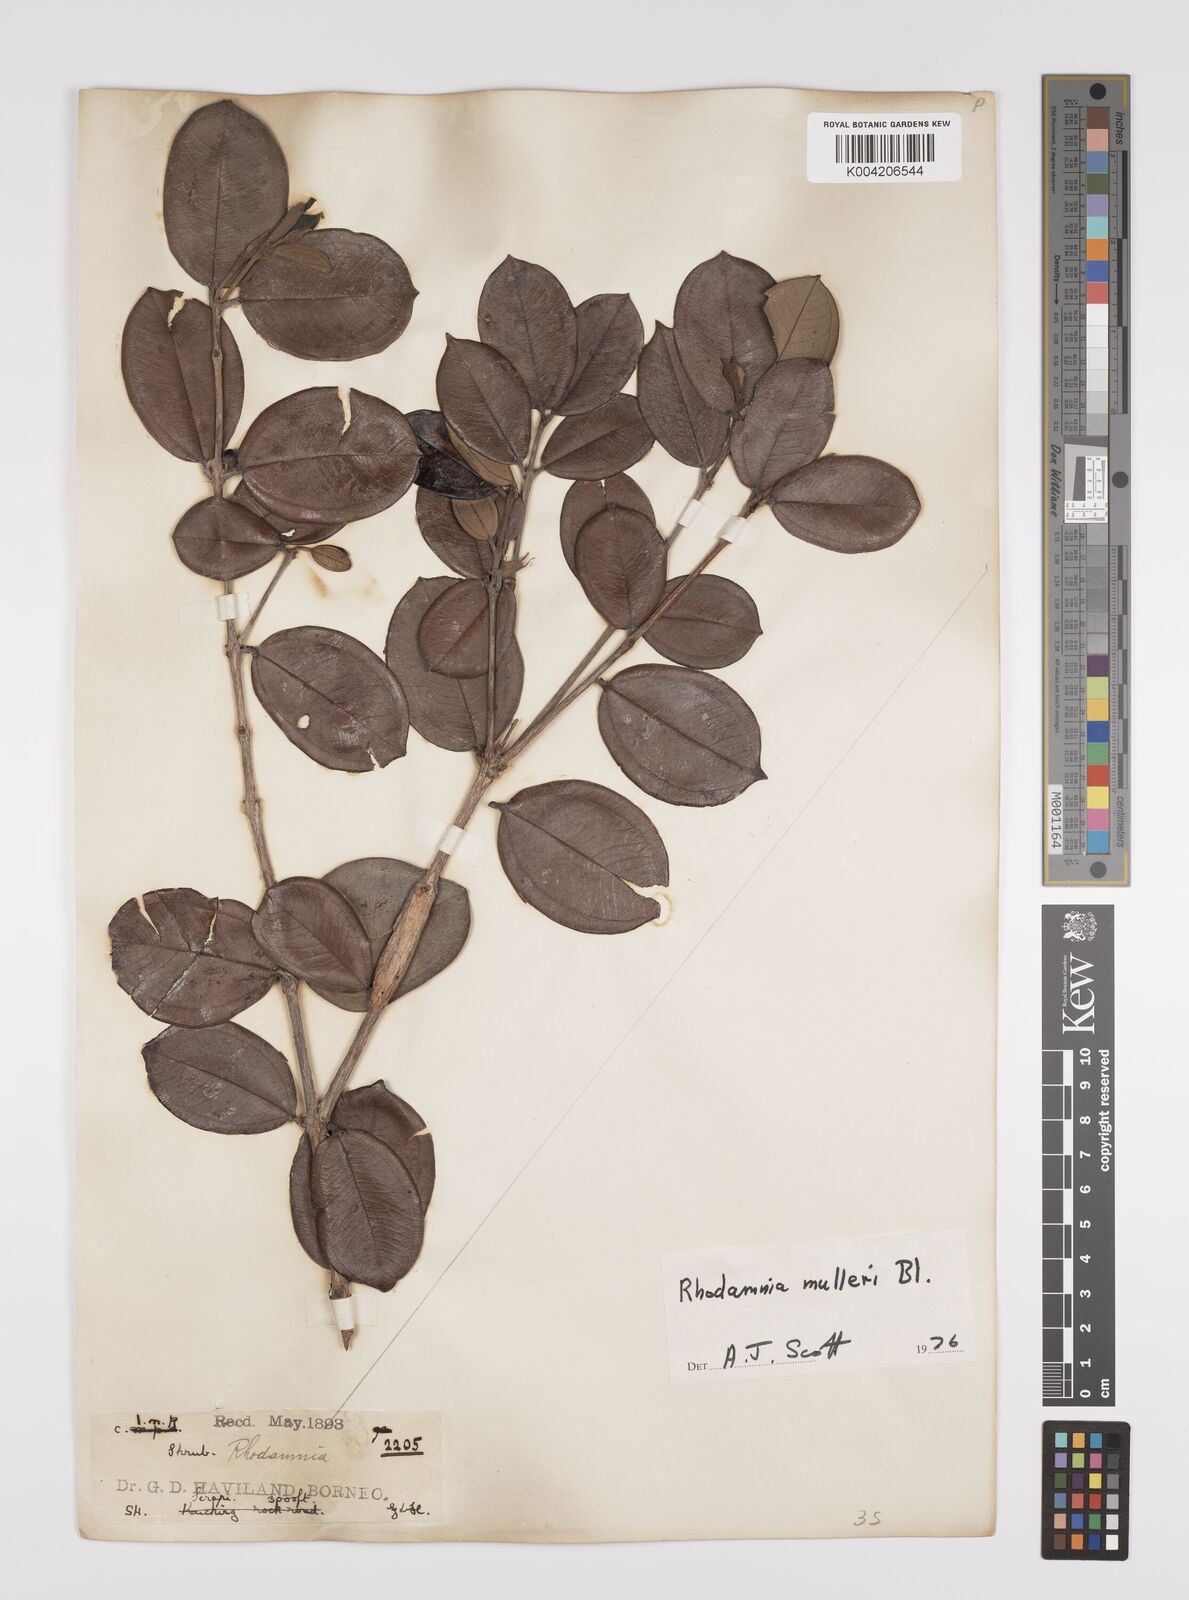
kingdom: Plantae
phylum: Tracheophyta
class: Magnoliopsida
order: Myrtales
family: Myrtaceae
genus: Rhodamnia
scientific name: Rhodamnia mulleri
